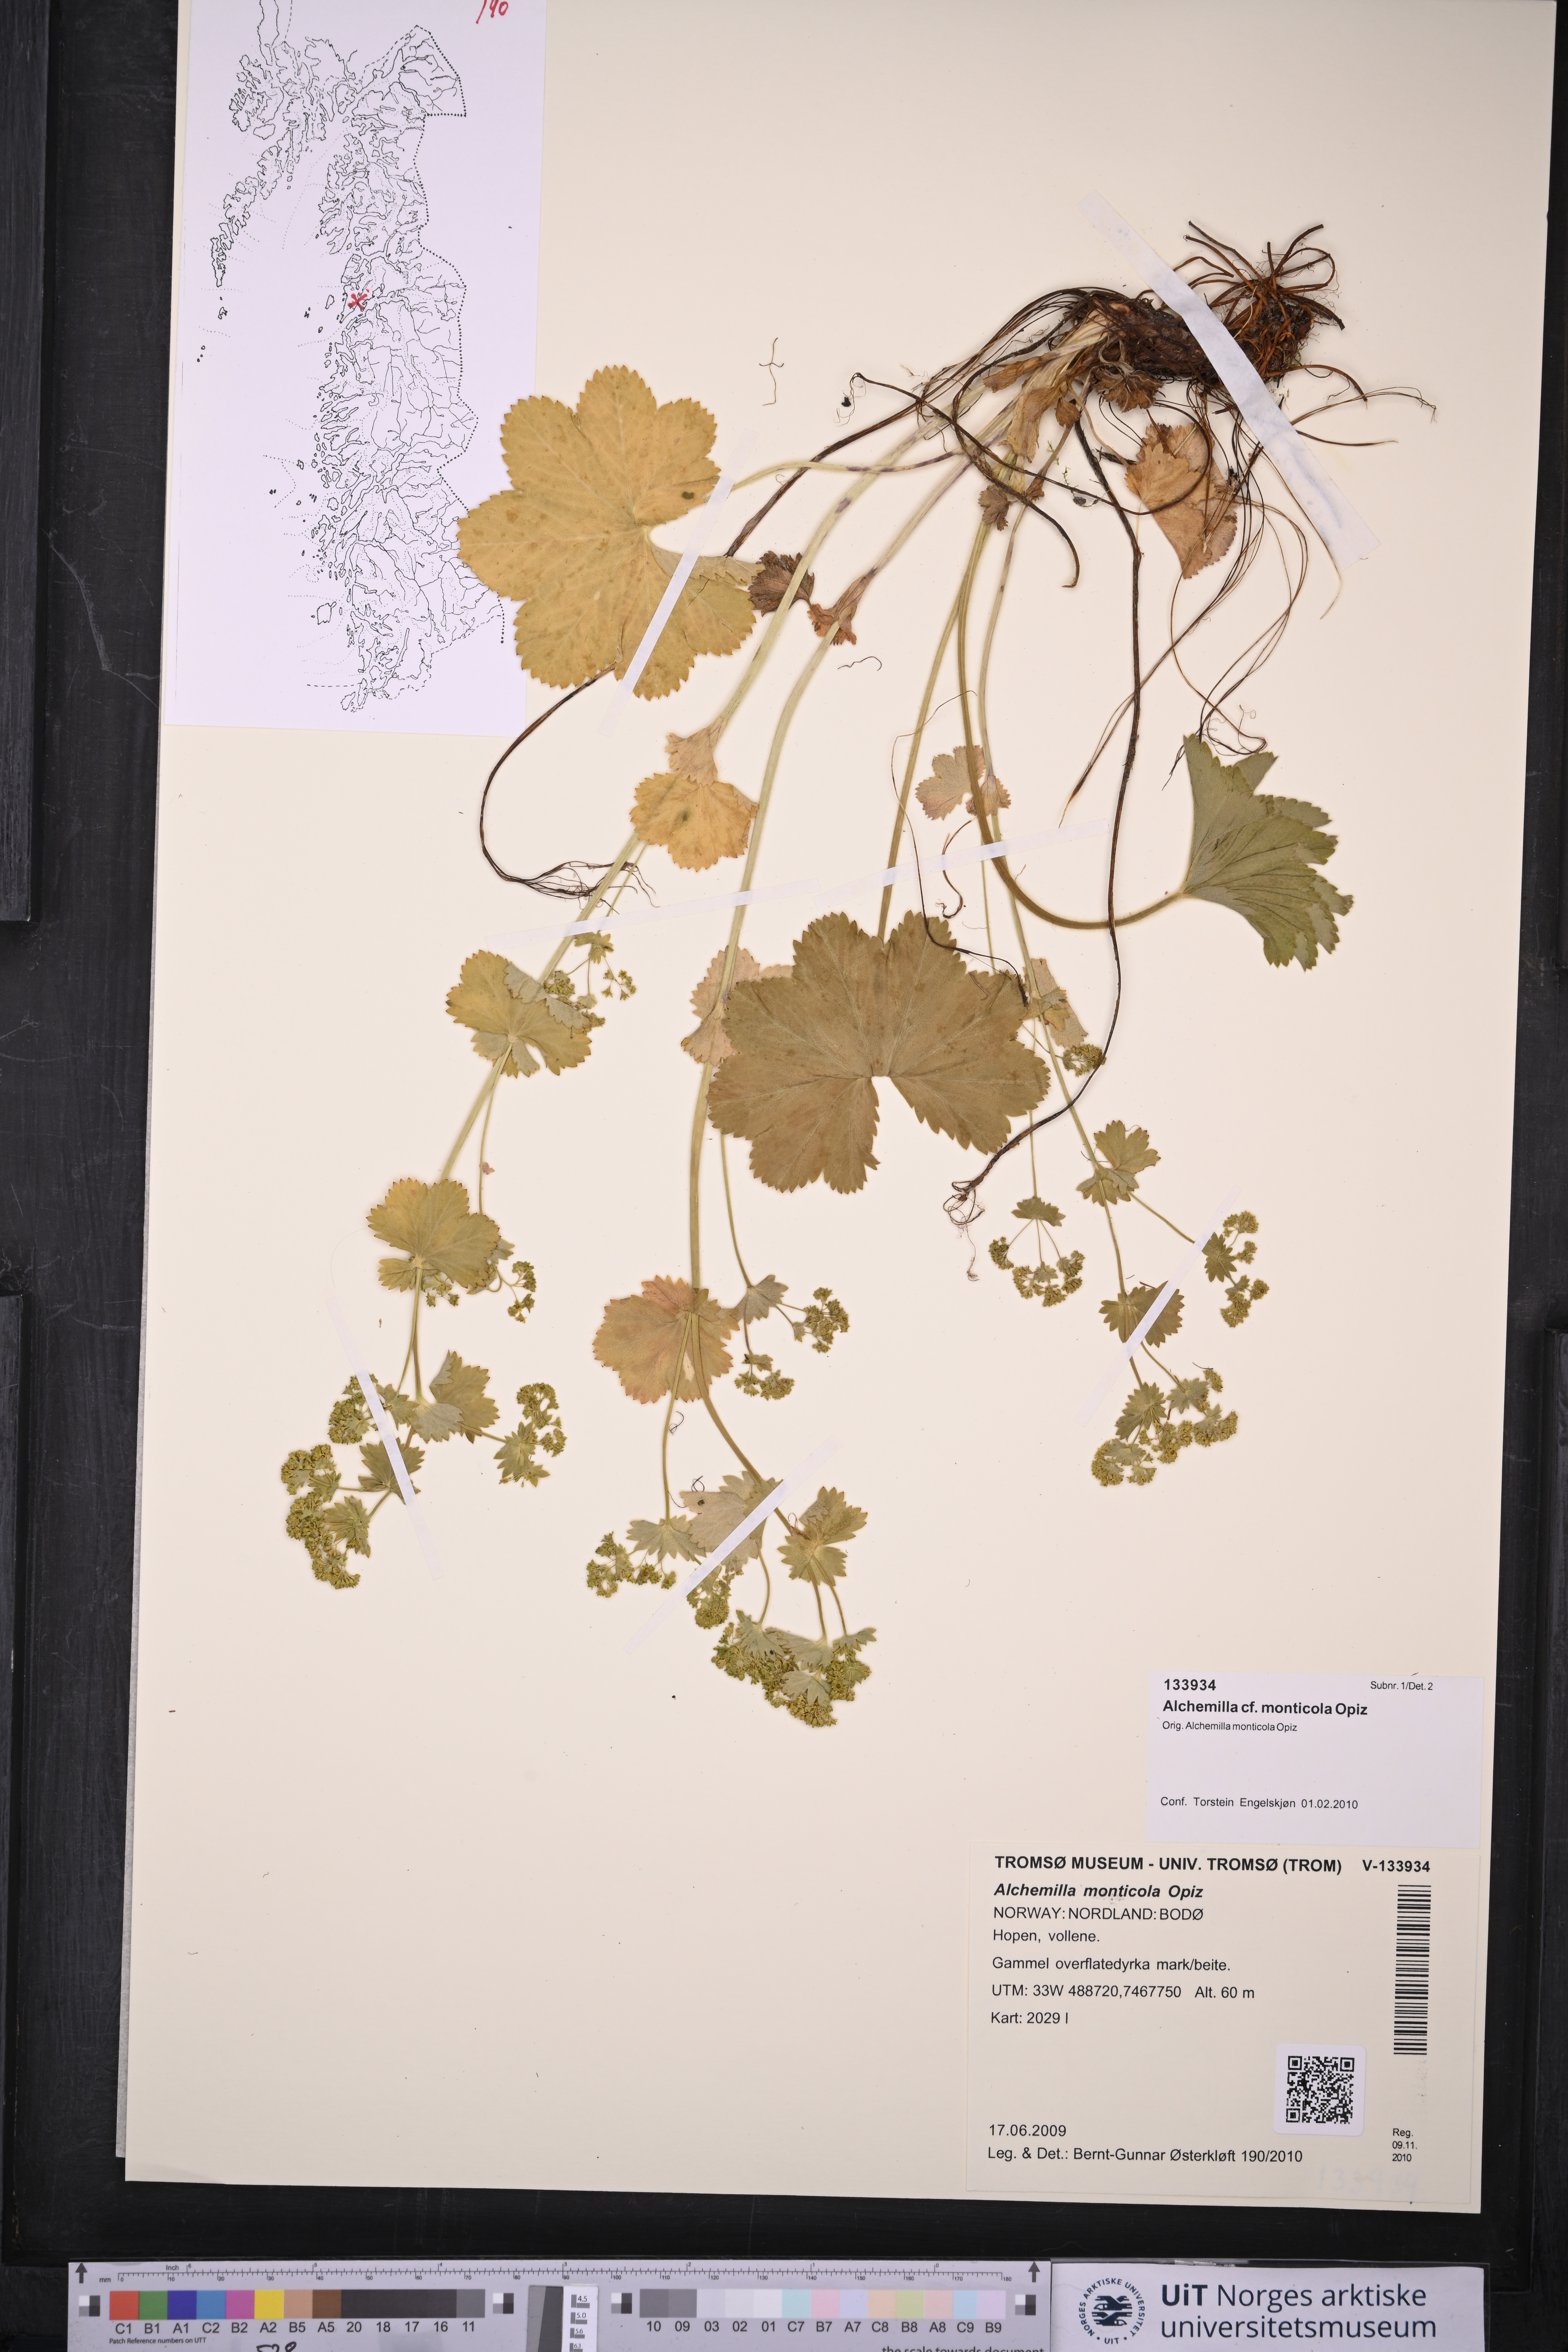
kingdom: Plantae
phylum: Tracheophyta
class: Magnoliopsida
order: Rosales
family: Rosaceae
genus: Alchemilla
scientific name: Alchemilla monticola
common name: Hairy lady's mantle
